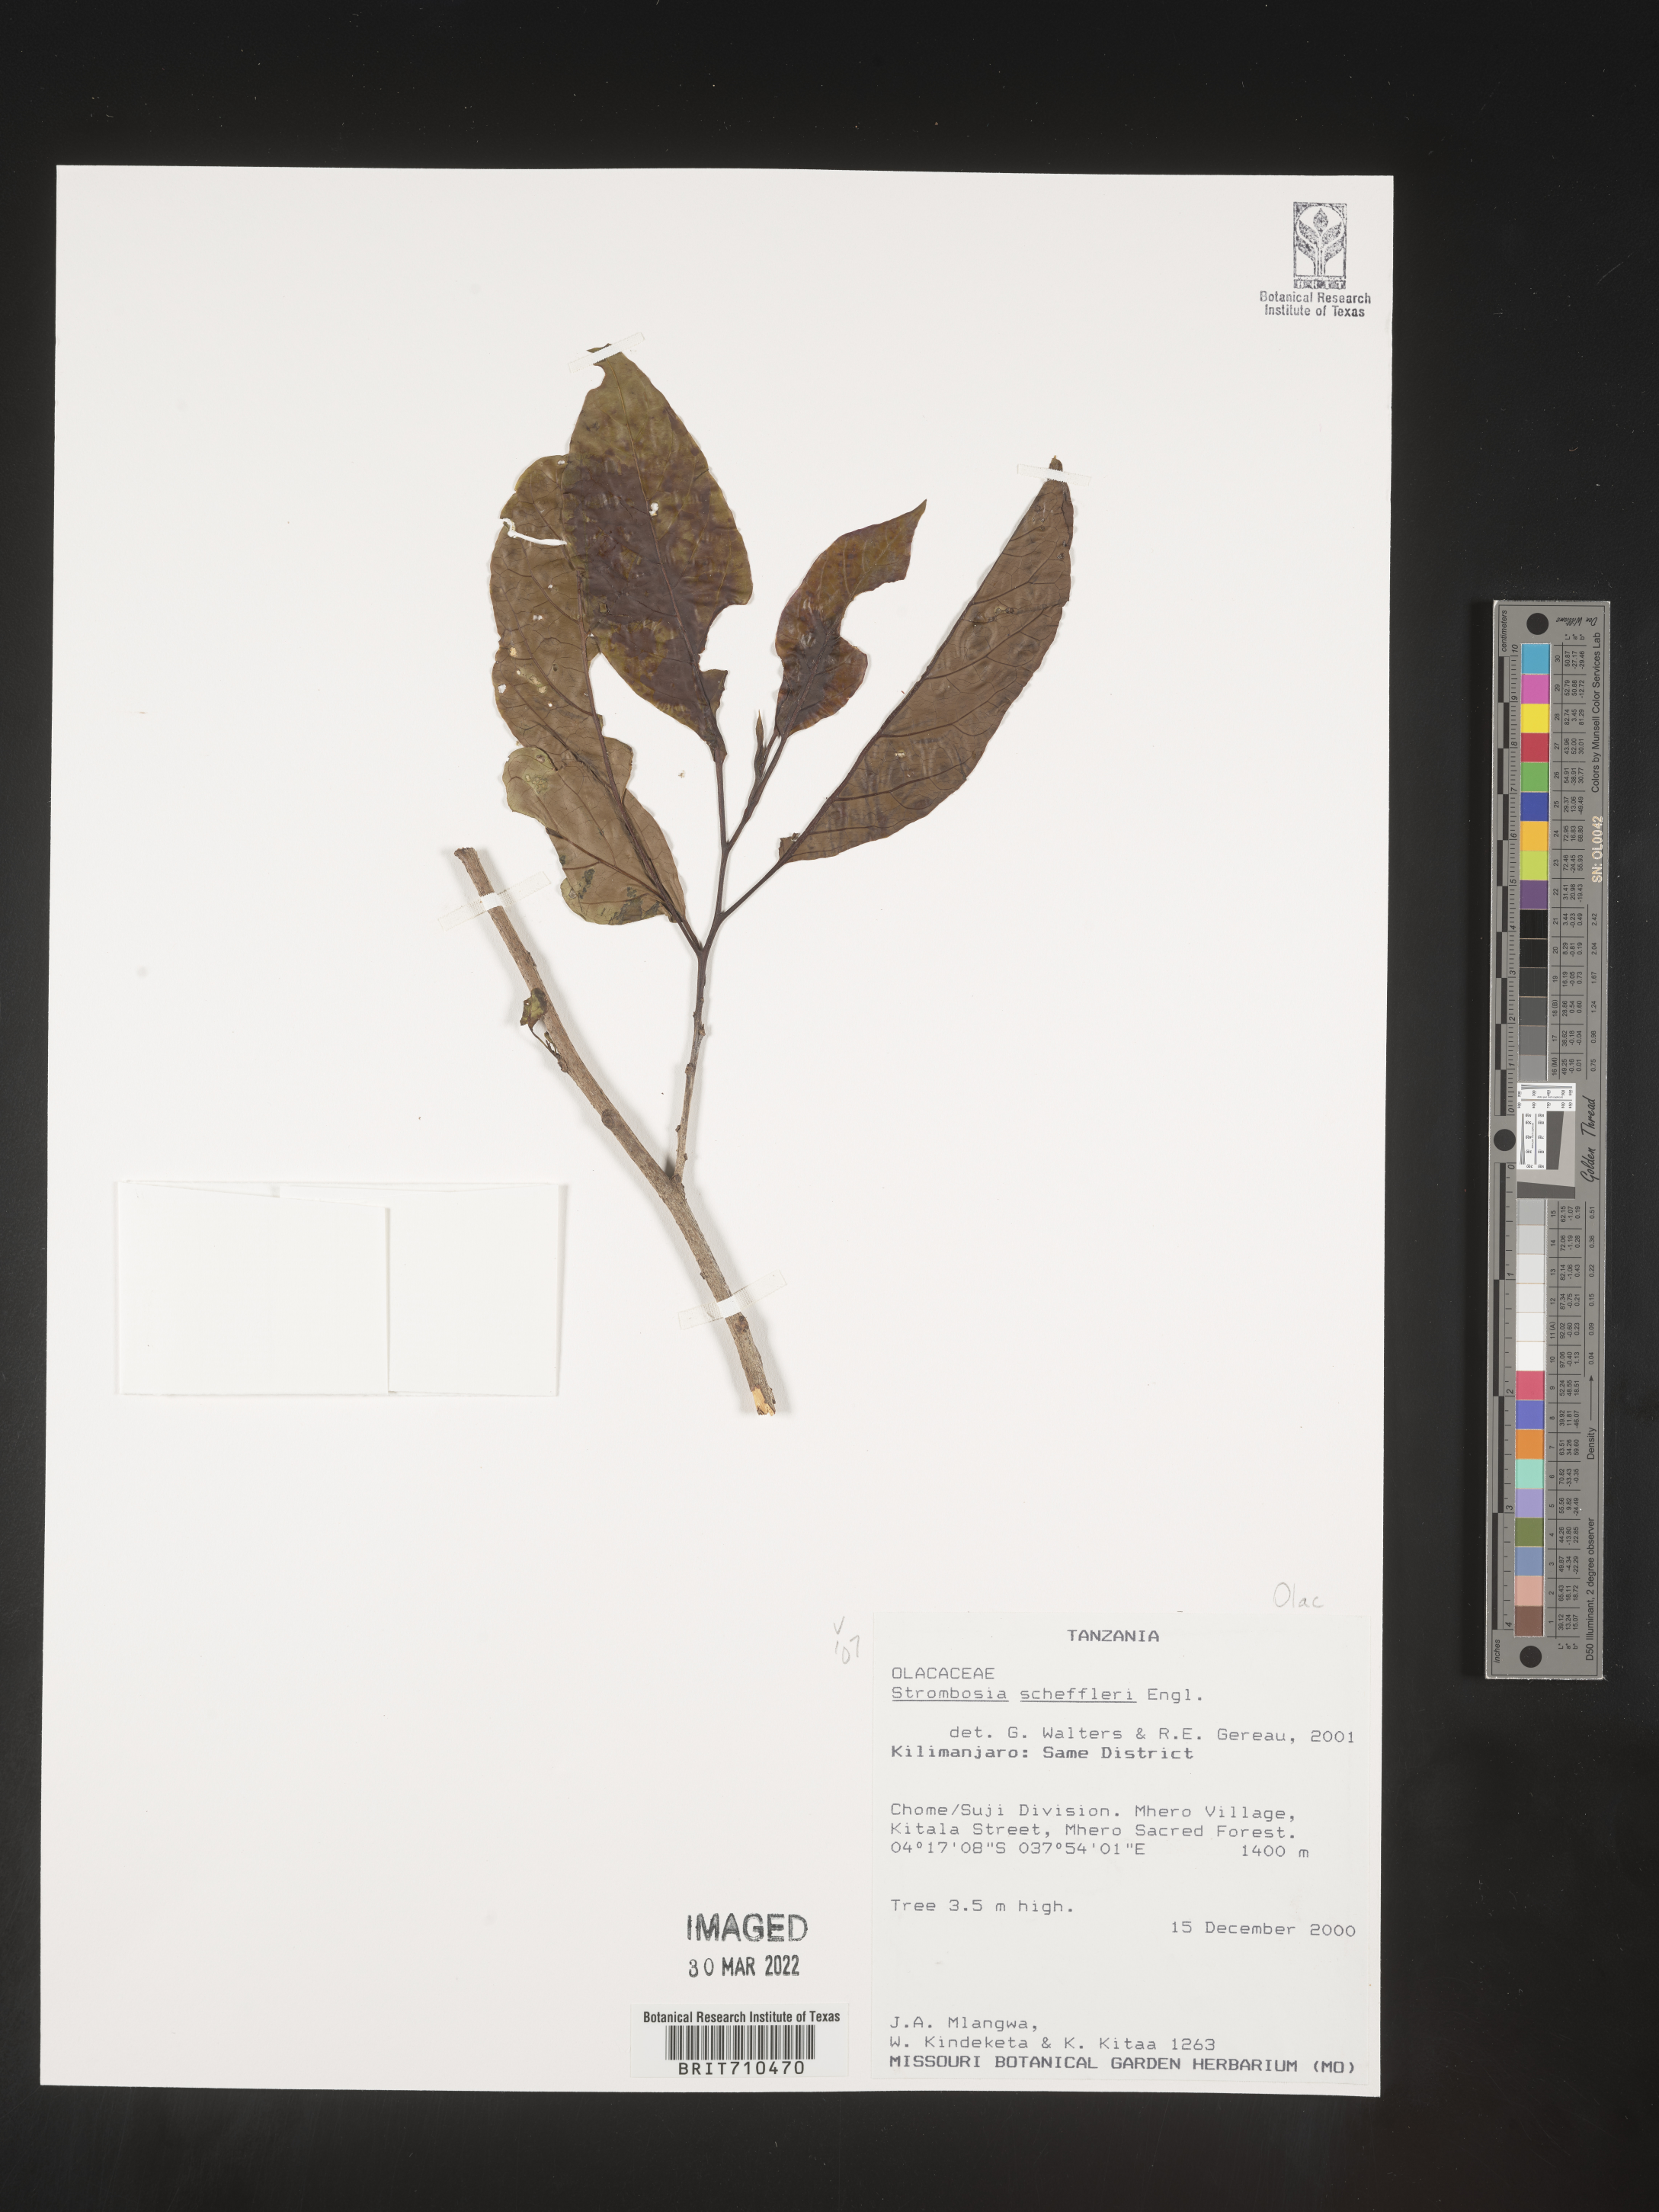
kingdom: Plantae
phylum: Tracheophyta
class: Magnoliopsida
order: Santalales
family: Strombosiaceae
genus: Strombosia
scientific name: Strombosia
